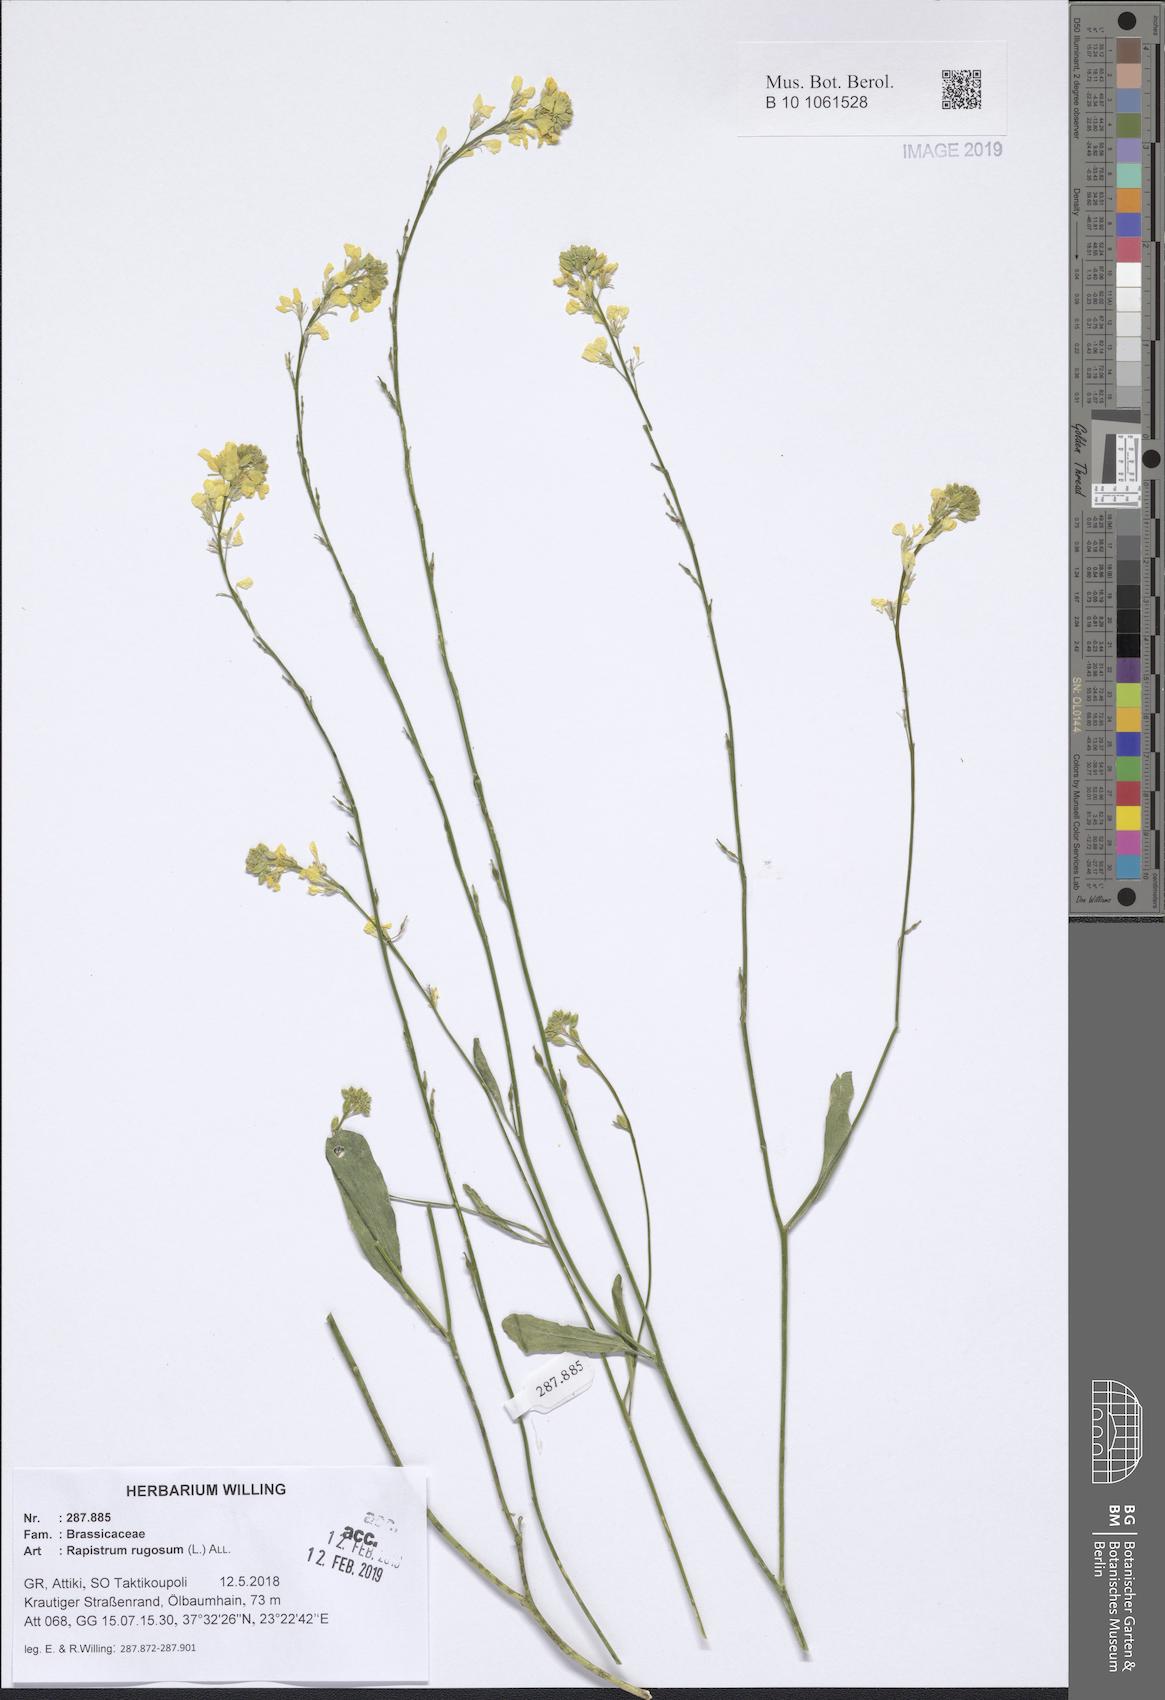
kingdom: Plantae
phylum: Tracheophyta
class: Magnoliopsida
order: Brassicales
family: Brassicaceae
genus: Rapistrum
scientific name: Rapistrum rugosum
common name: Annual bastardcabbage
